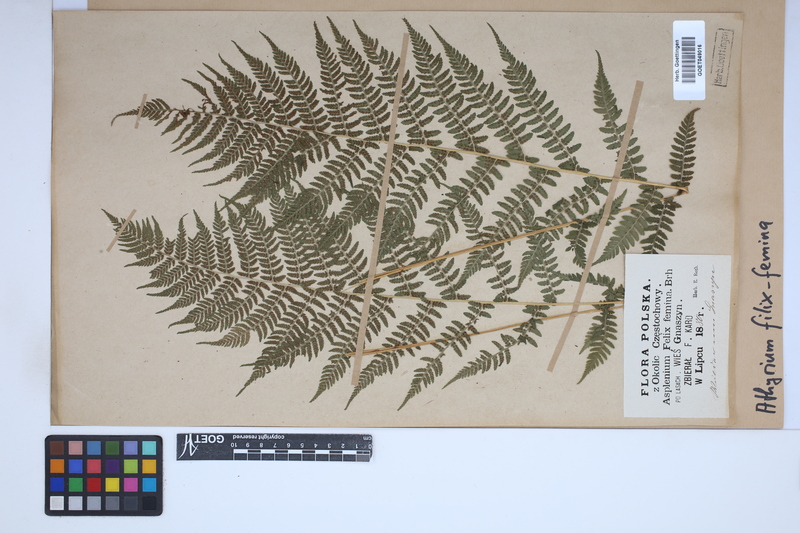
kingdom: Plantae
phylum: Tracheophyta
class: Polypodiopsida
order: Polypodiales
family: Athyriaceae
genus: Athyrium
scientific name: Athyrium filix-femina
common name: Lady fern
